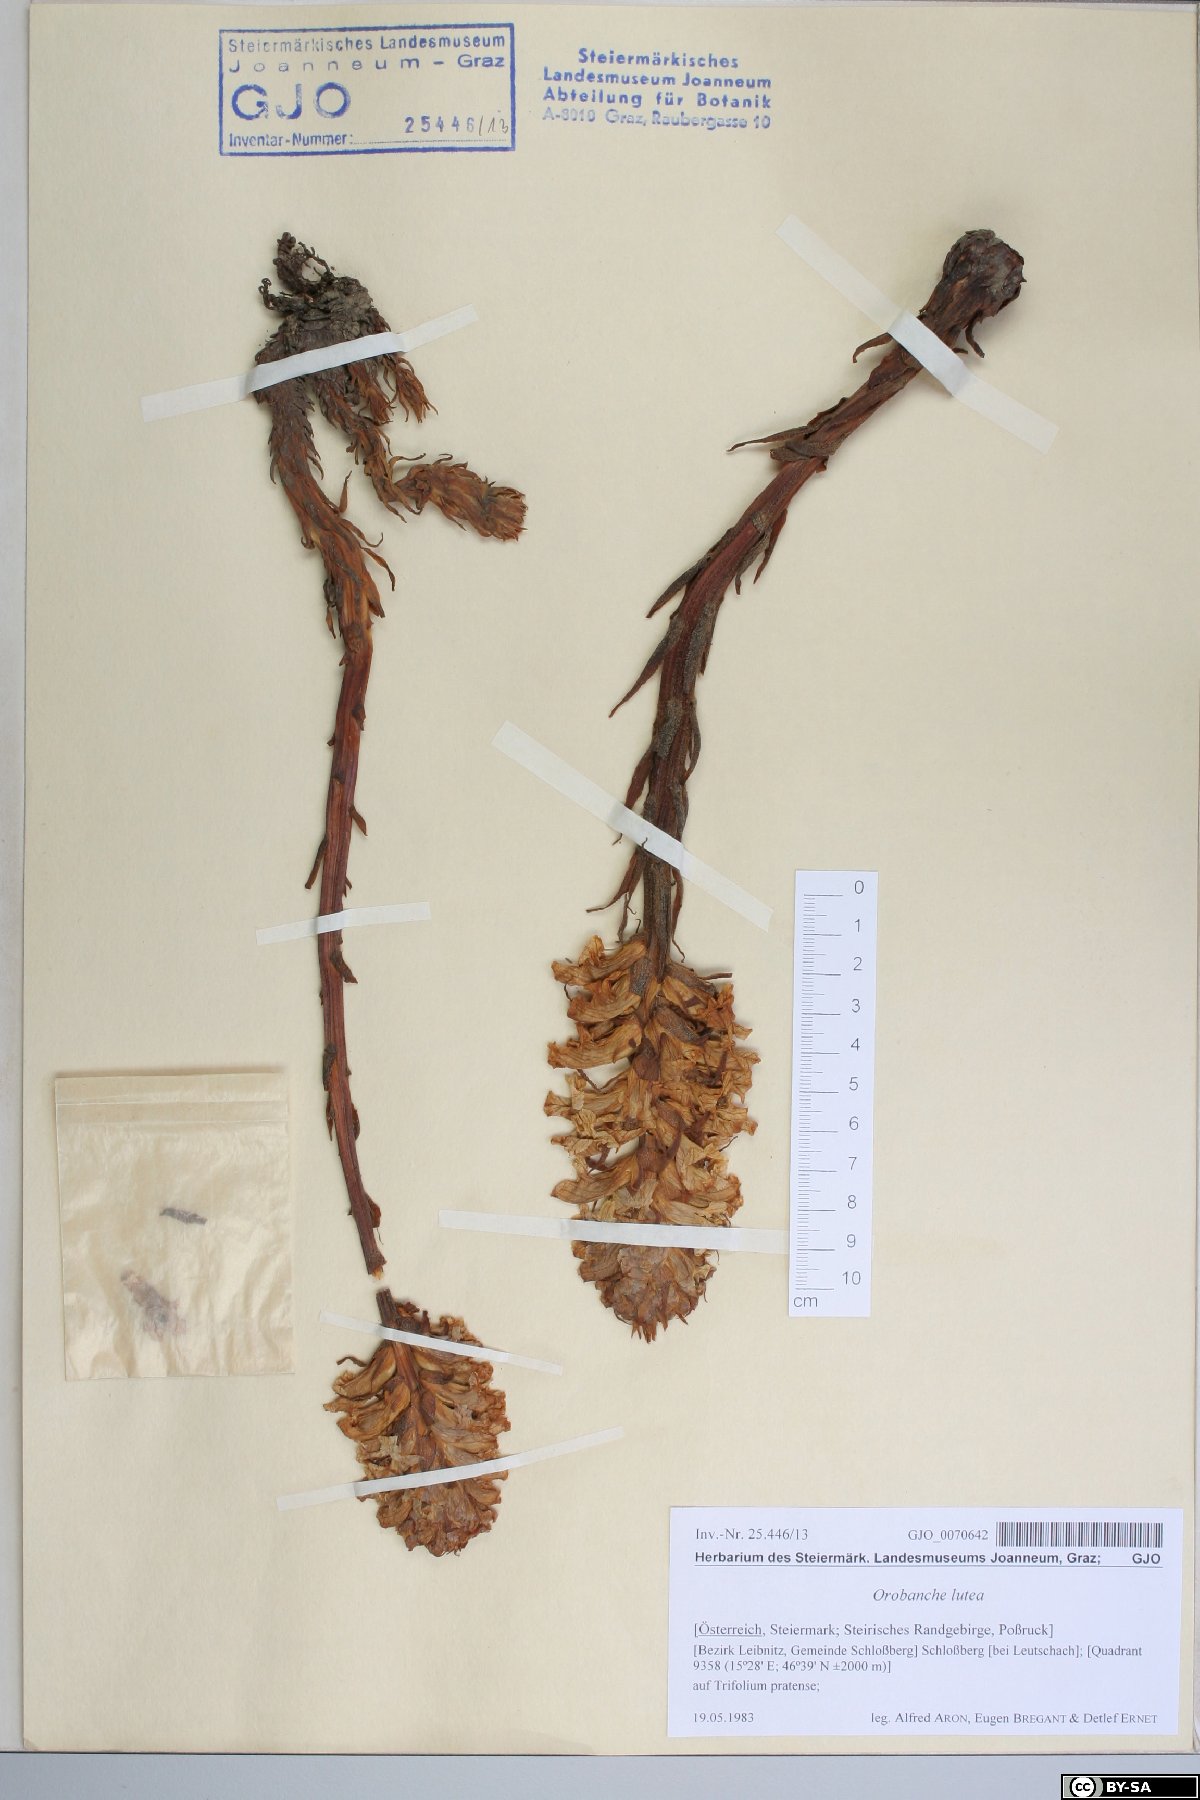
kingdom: Plantae
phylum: Tracheophyta
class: Magnoliopsida
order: Lamiales
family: Orobanchaceae
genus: Orobanche
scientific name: Orobanche lutea
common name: Yellow broomrape
